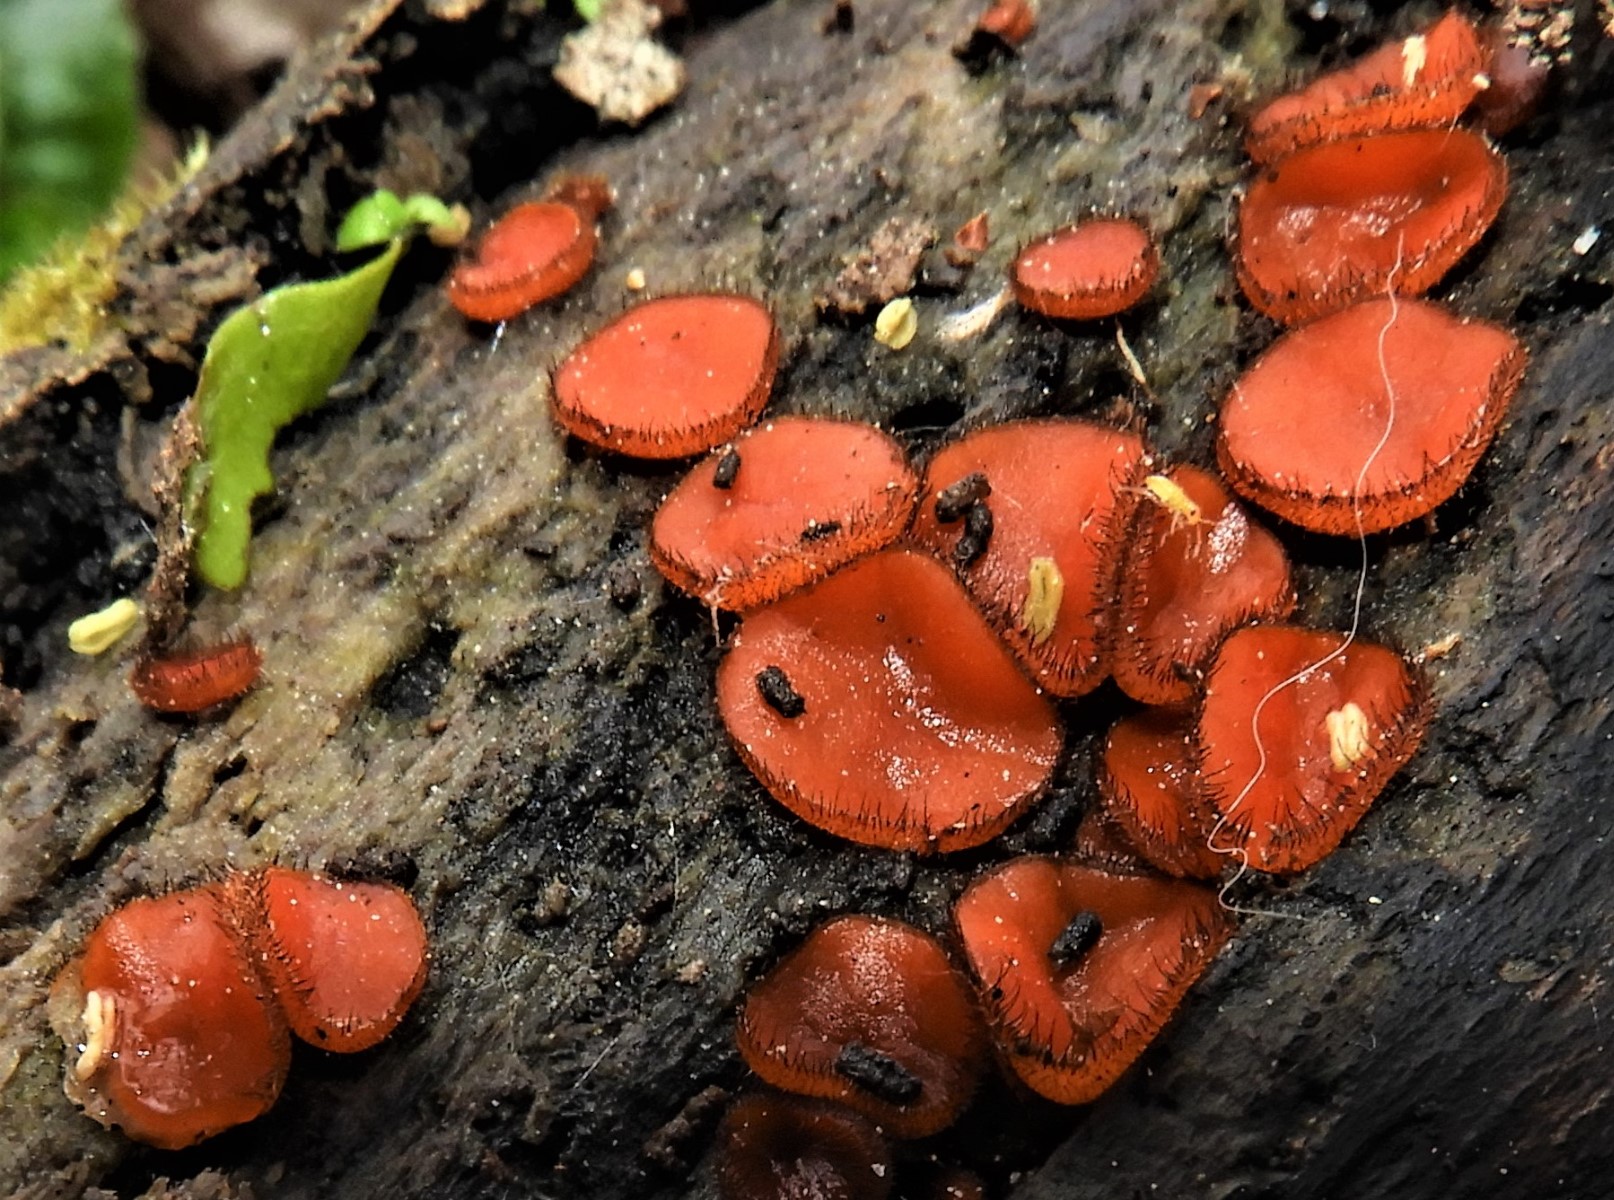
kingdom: Fungi
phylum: Ascomycota
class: Pezizomycetes
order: Pezizales
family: Pyronemataceae
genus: Scutellinia
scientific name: Scutellinia scutellata
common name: frynset skjoldbæger
